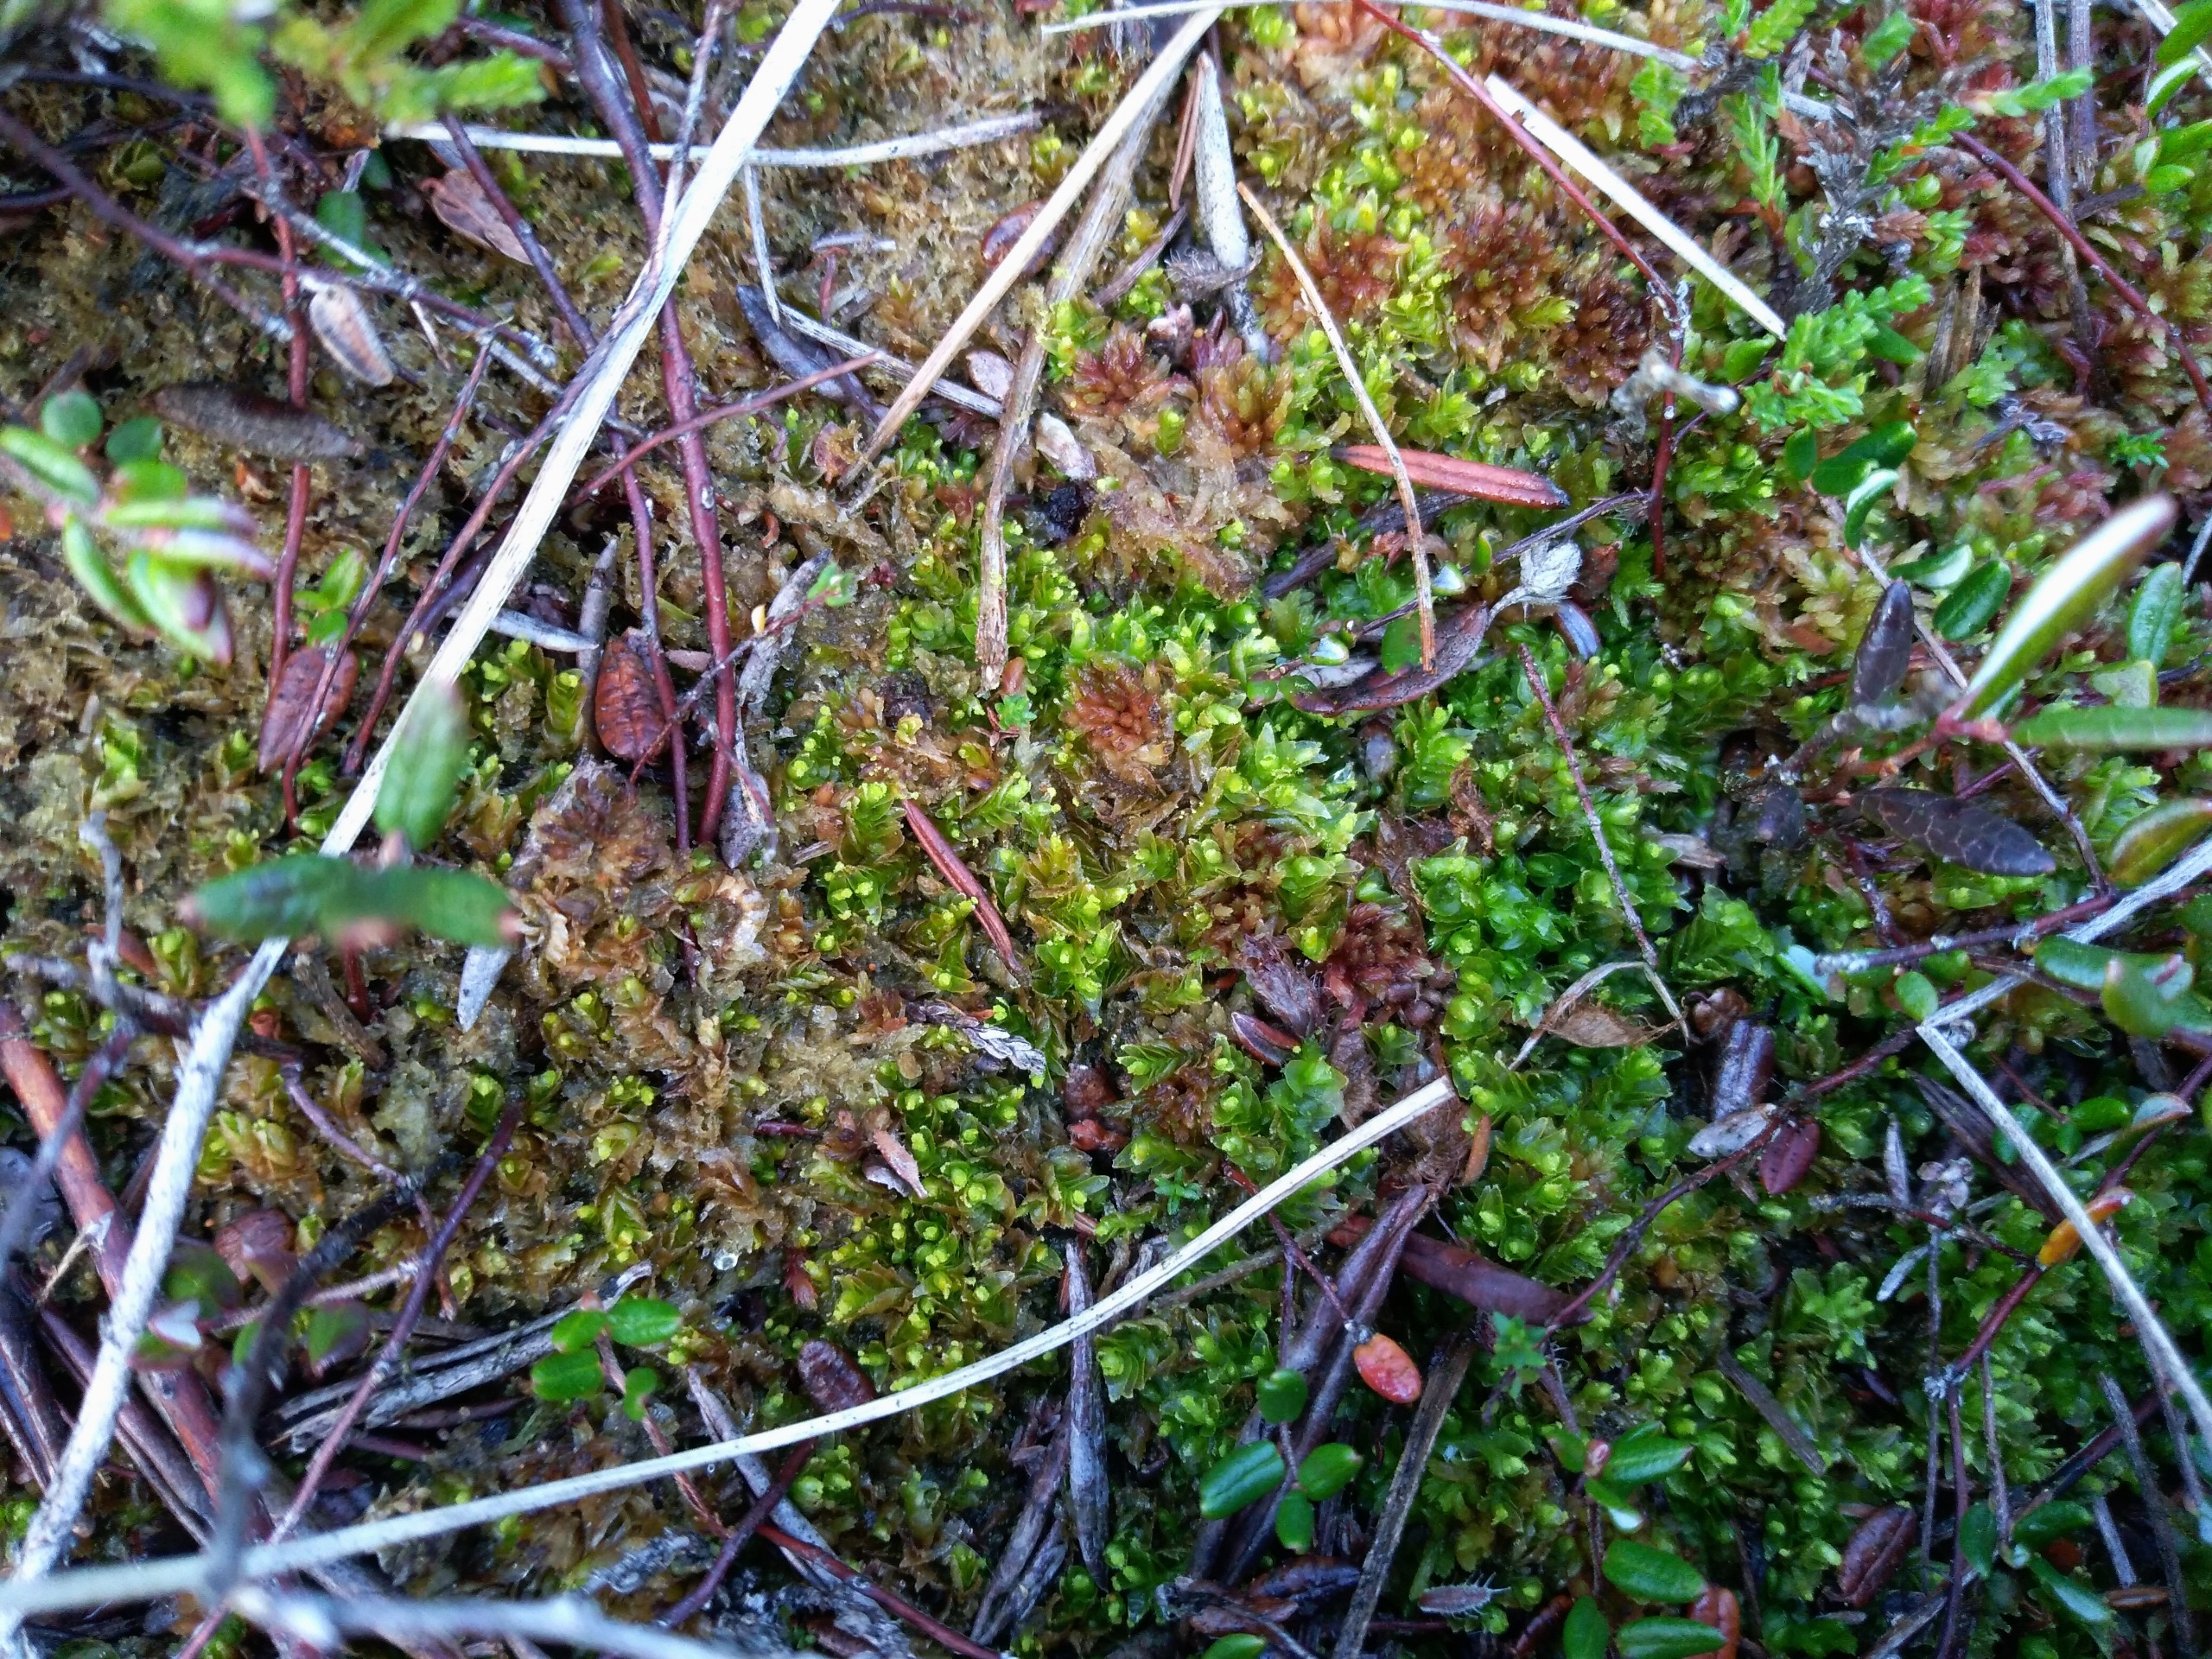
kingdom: Plantae
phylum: Marchantiophyta
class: Jungermanniopsida
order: Jungermanniales
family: Myliaceae
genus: Mylia
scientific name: Mylia anomala
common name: Mose-fladmund
